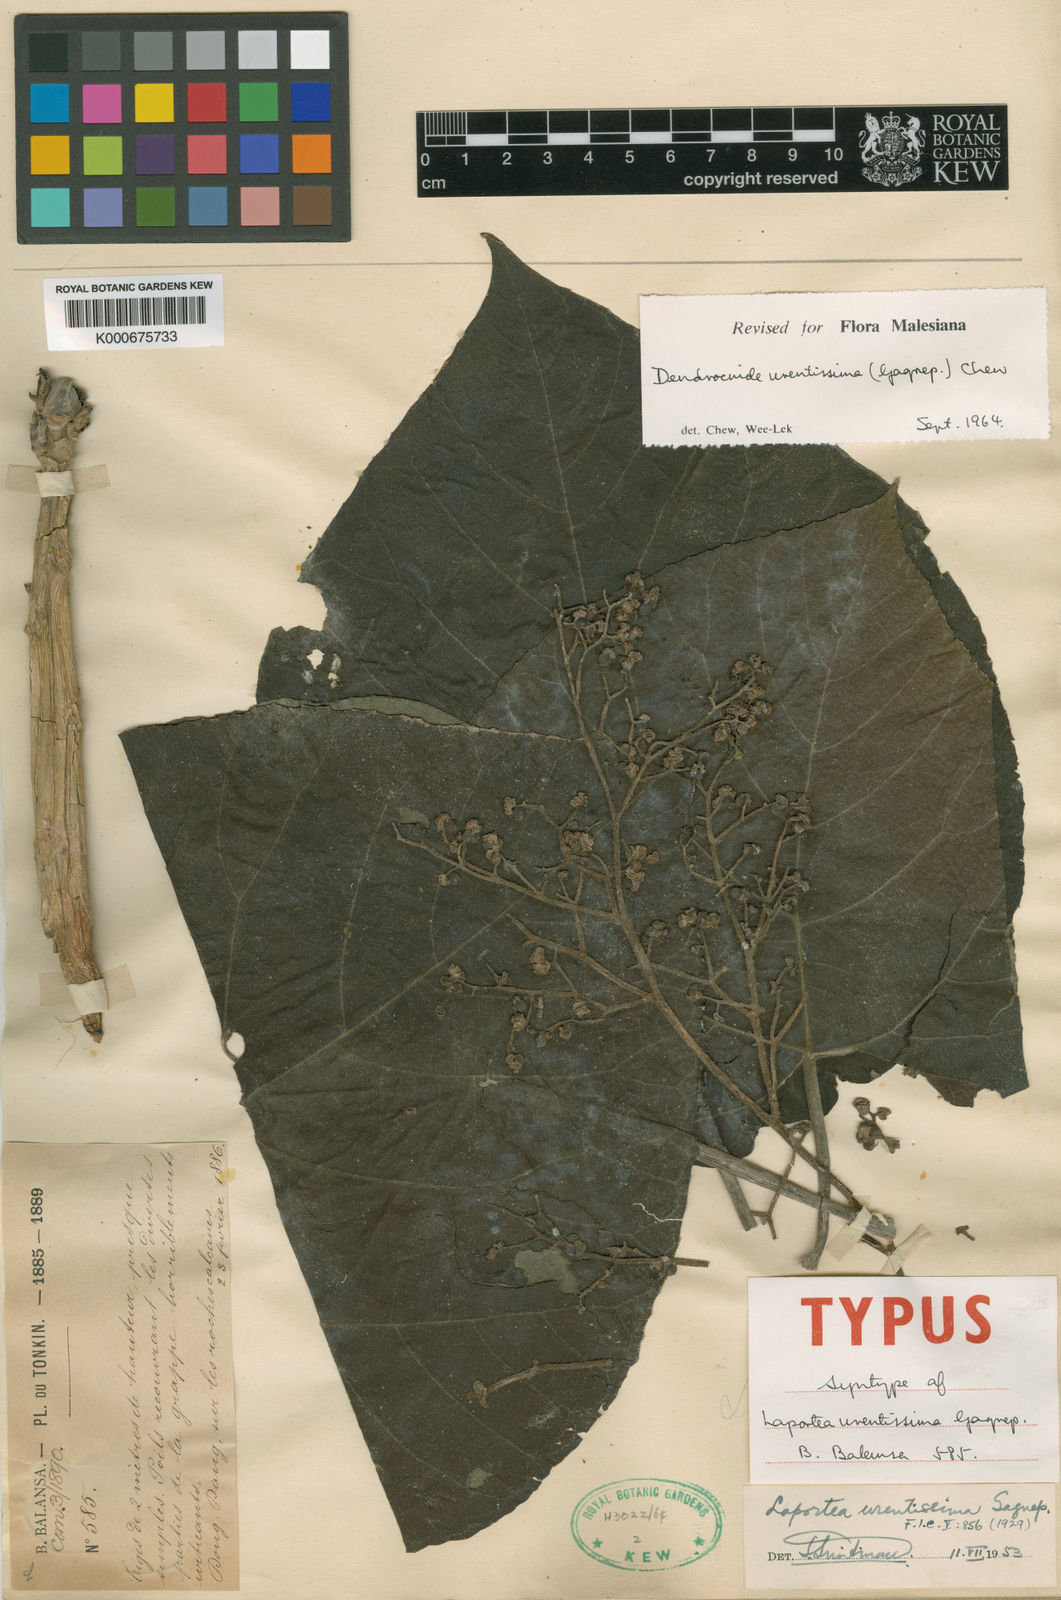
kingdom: Plantae
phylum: Tracheophyta
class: Magnoliopsida
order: Rosales
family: Urticaceae
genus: Dendrocnide
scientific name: Dendrocnide urentissima
